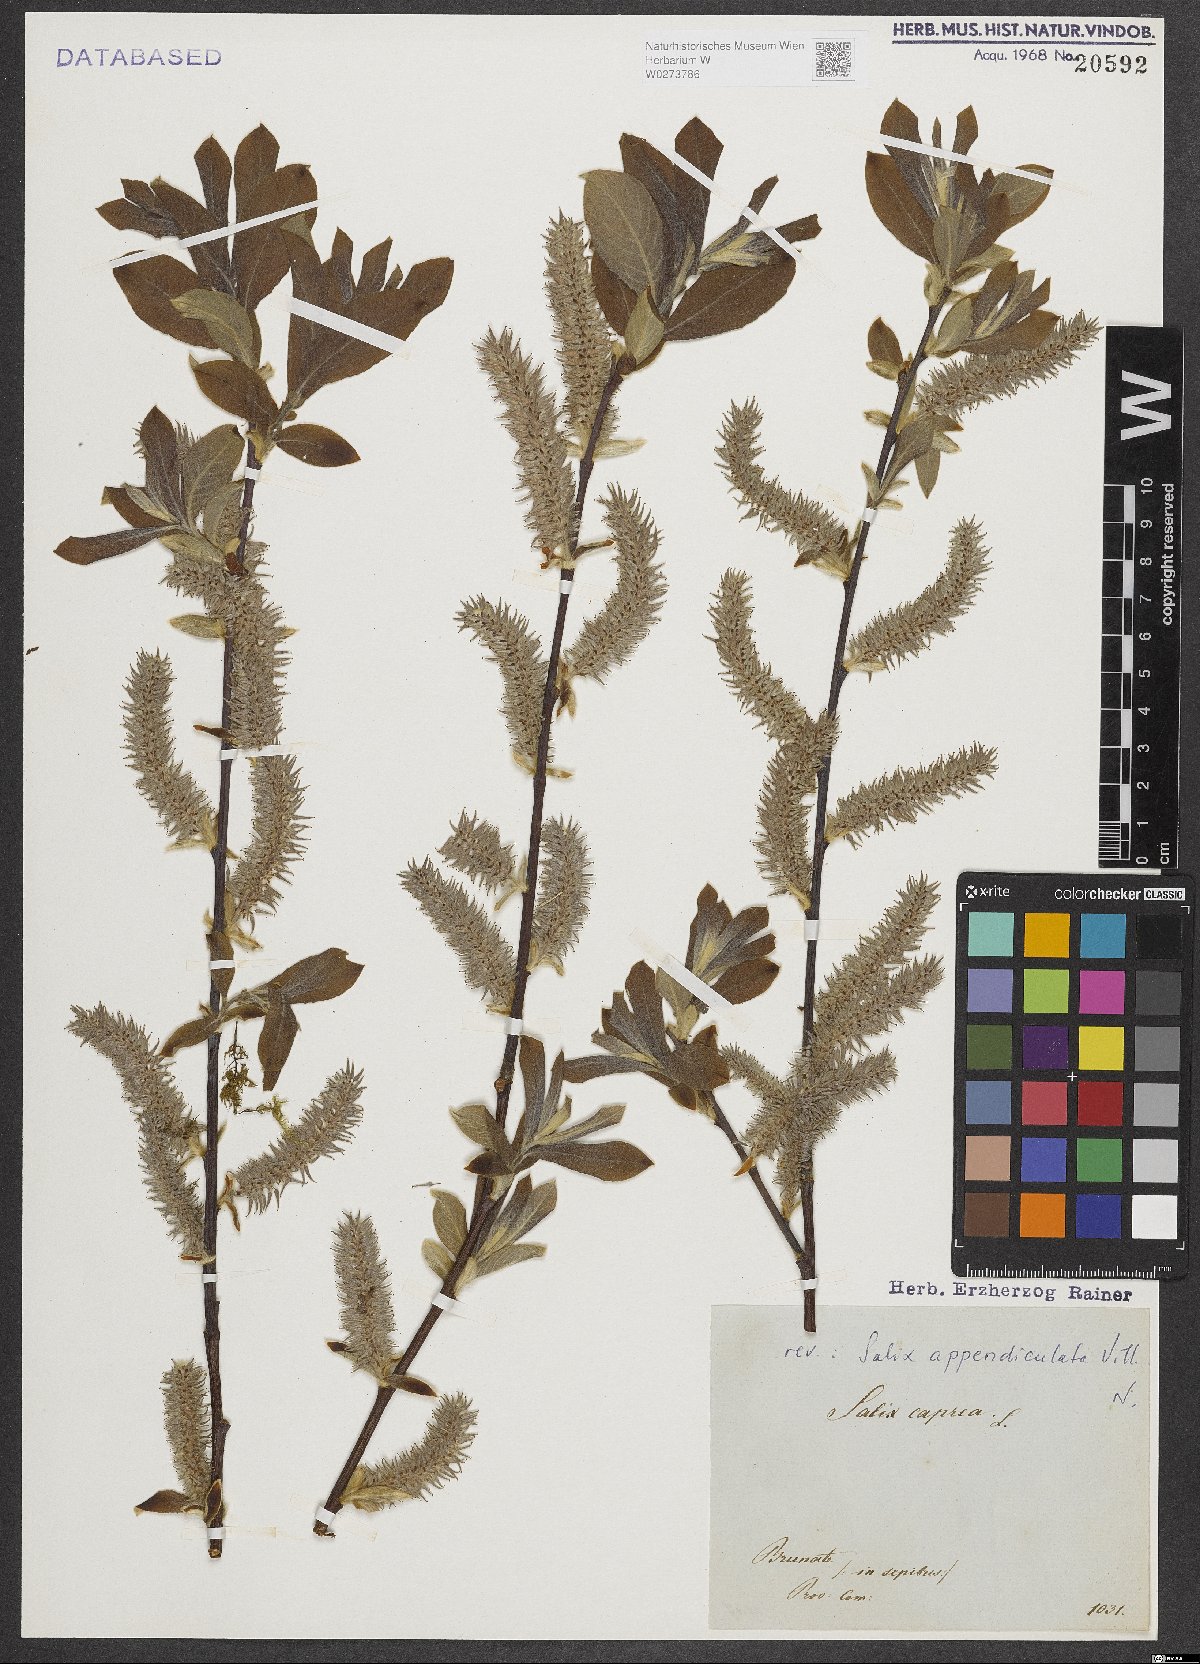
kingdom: Plantae
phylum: Tracheophyta
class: Magnoliopsida
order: Malpighiales
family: Salicaceae
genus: Salix
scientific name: Salix appendiculata
